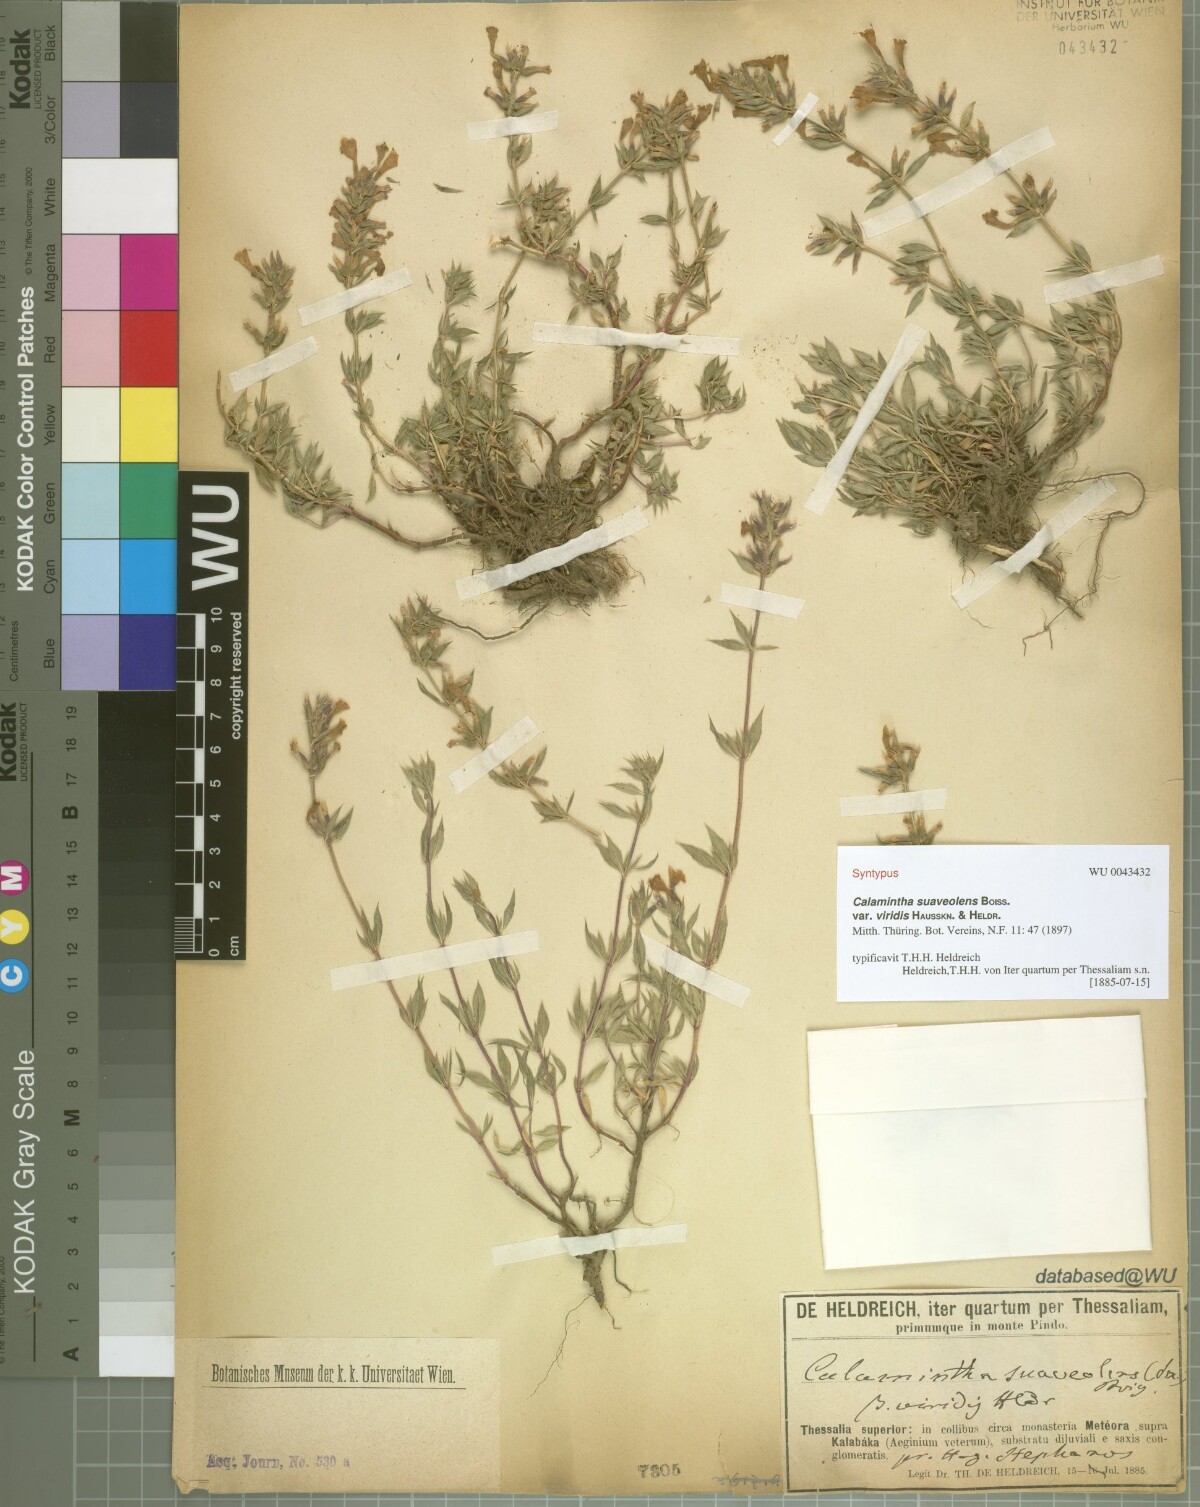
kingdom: Plantae
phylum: Tracheophyta
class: Magnoliopsida
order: Lamiales
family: Lamiaceae
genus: Clinopodium
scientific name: Clinopodium suaveolens
